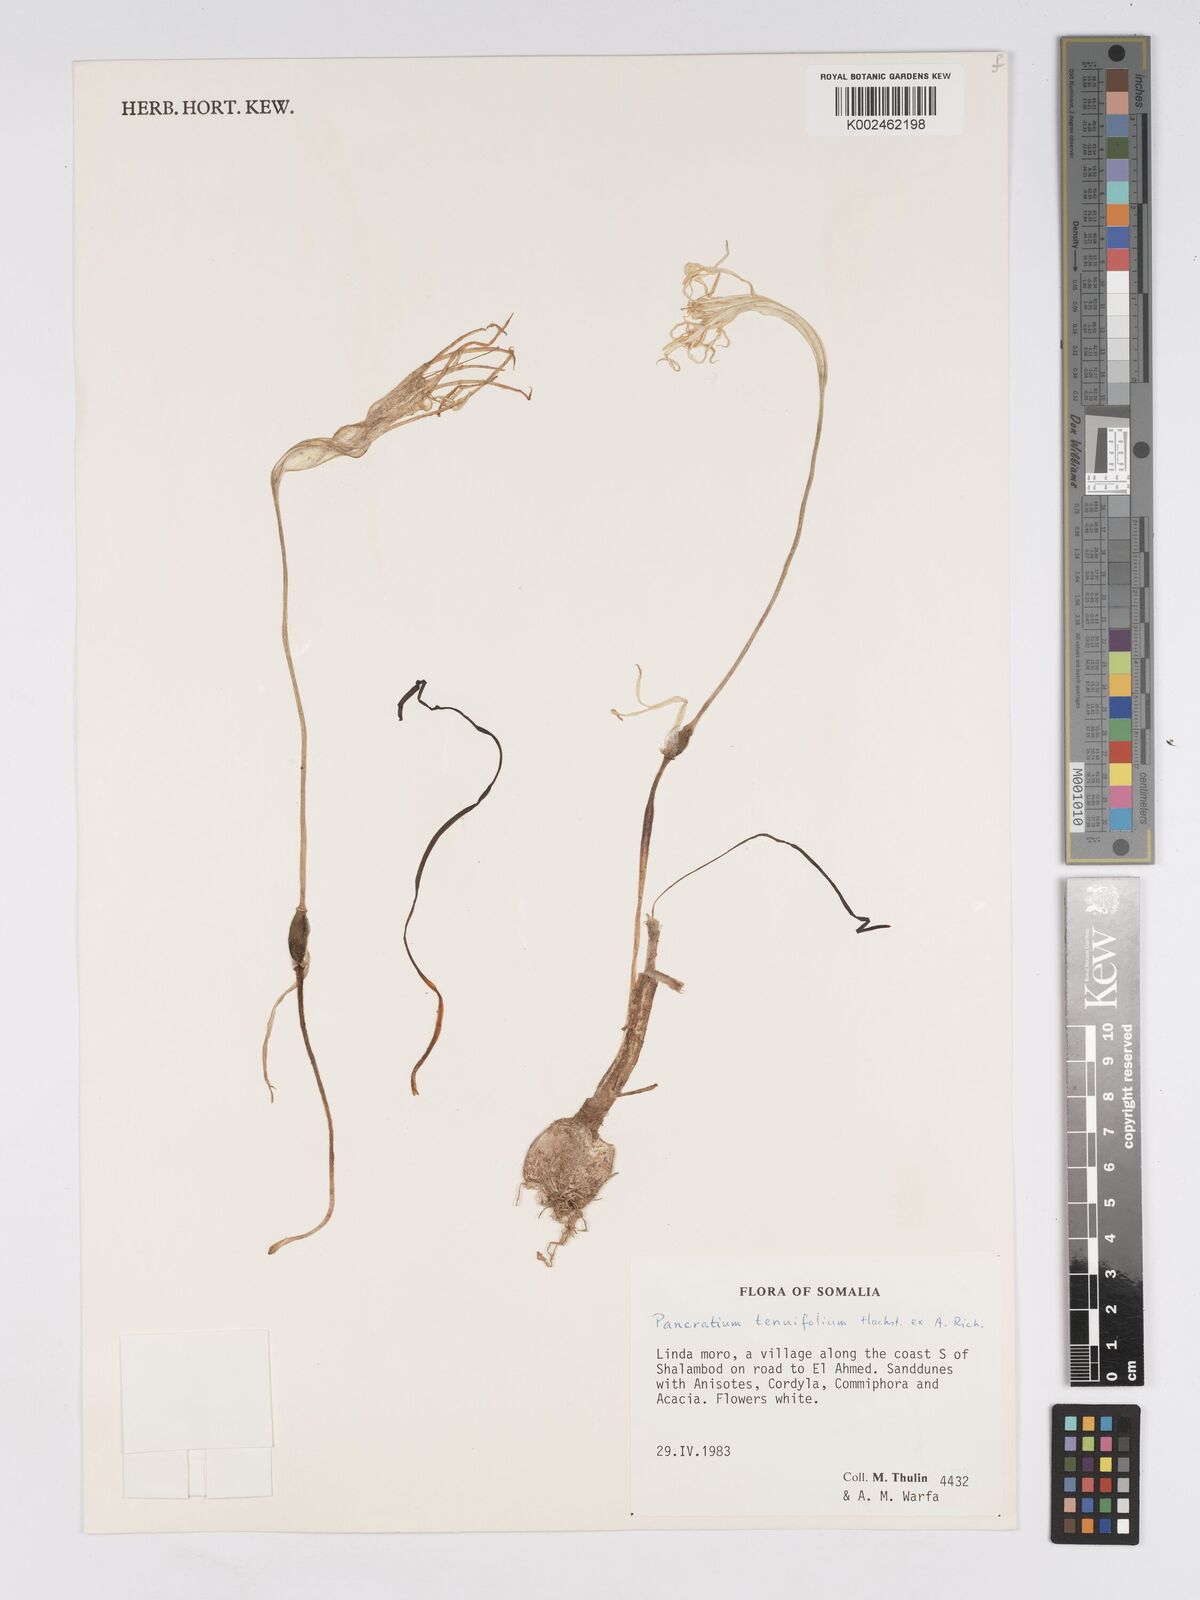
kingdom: Plantae
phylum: Tracheophyta
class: Liliopsida
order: Asparagales
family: Amaryllidaceae
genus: Pancratium
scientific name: Pancratium tenuifolium
